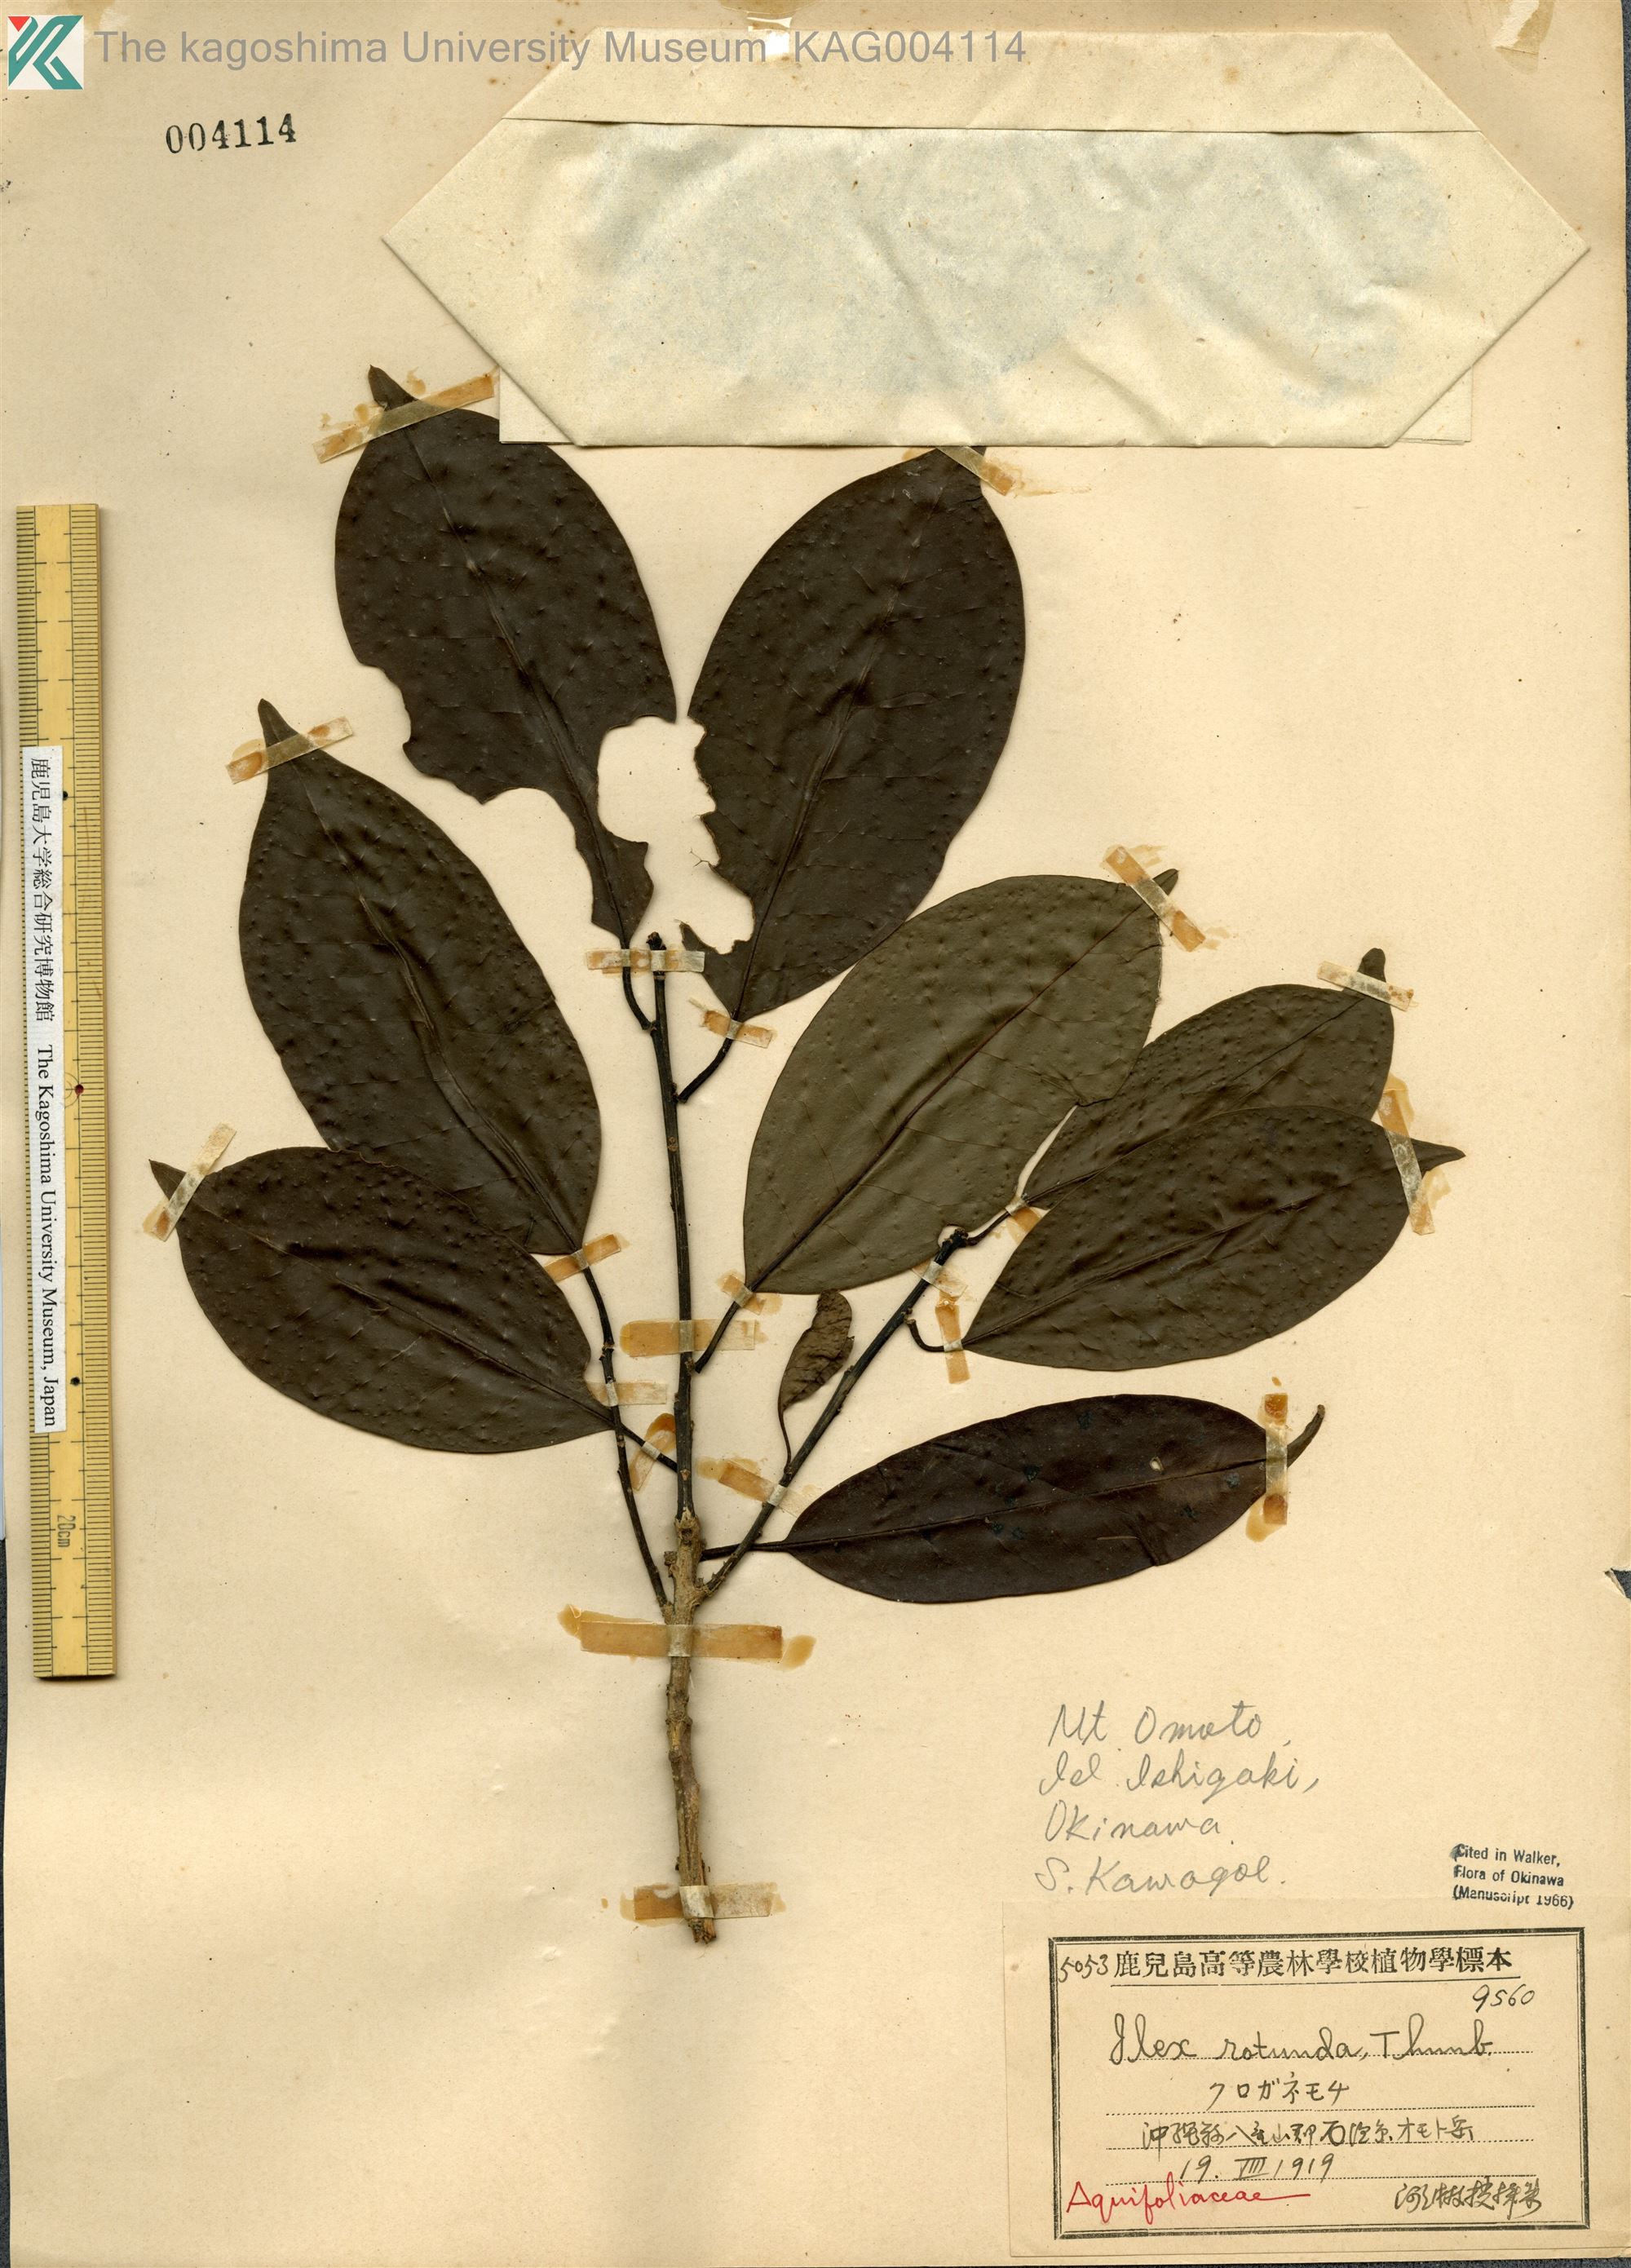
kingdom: Plantae
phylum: Tracheophyta
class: Magnoliopsida
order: Aquifoliales
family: Aquifoliaceae
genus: Ilex
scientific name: Ilex rotunda
